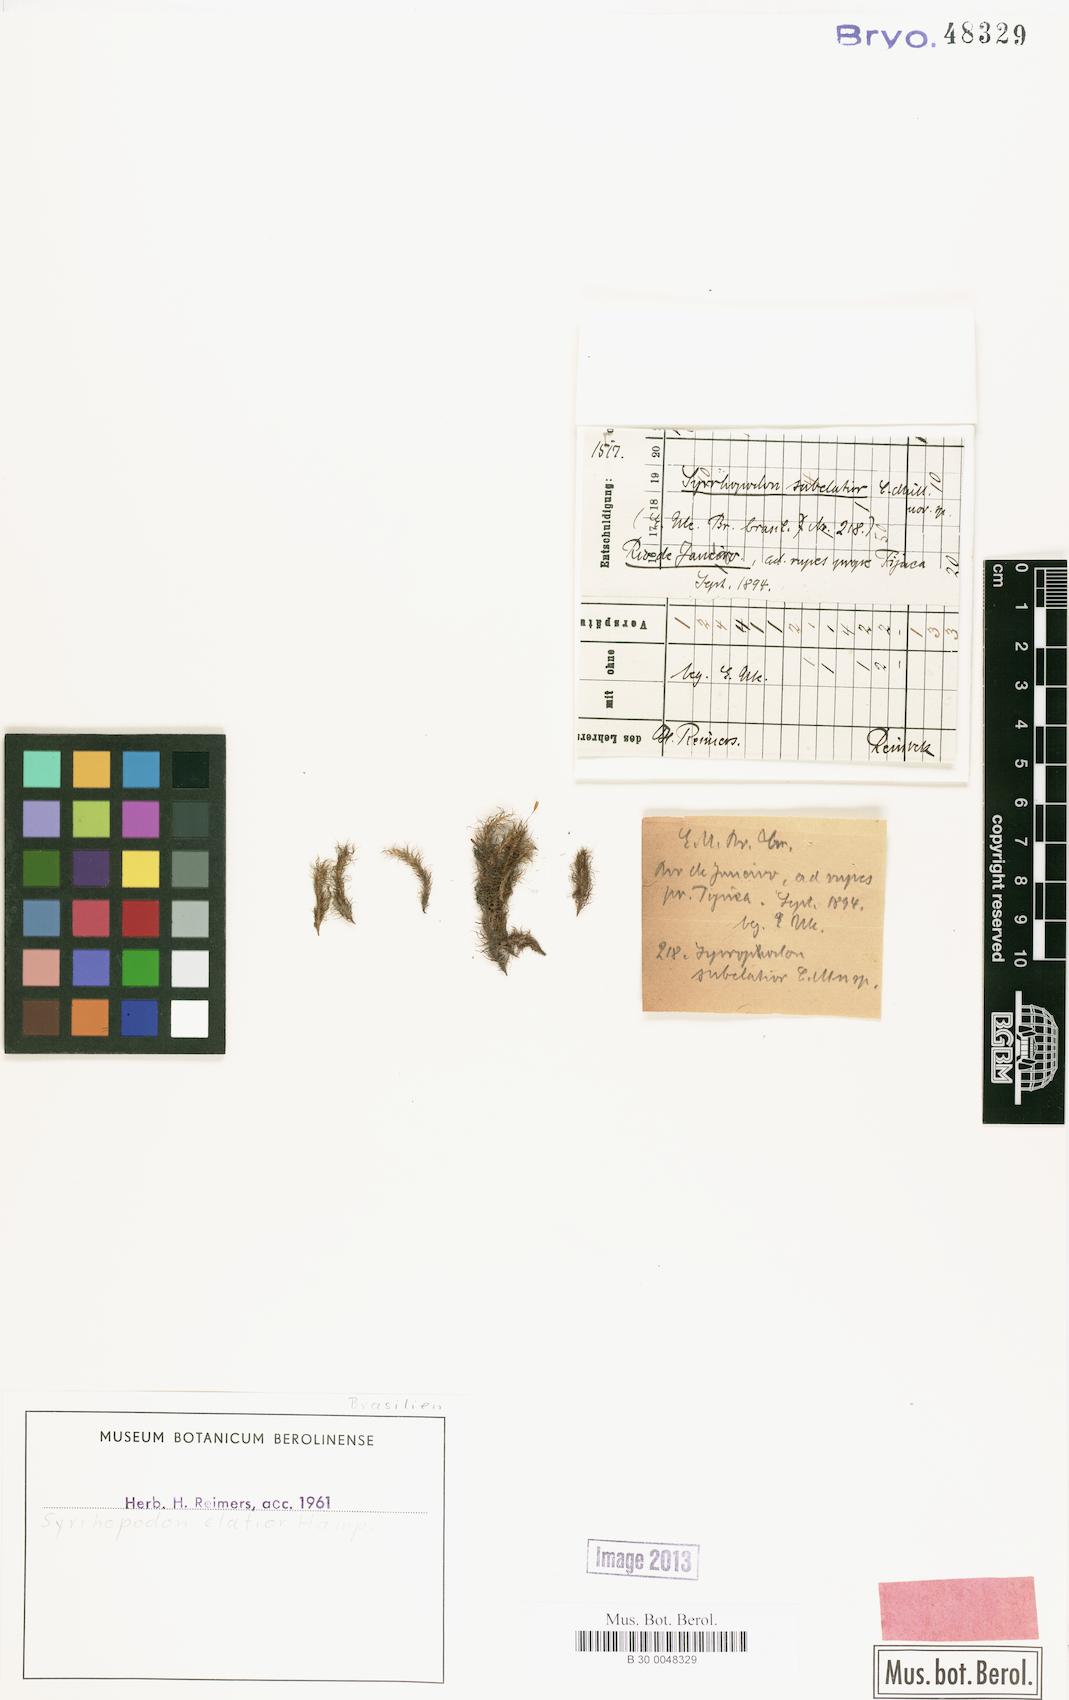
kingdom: Plantae
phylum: Bryophyta
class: Bryopsida
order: Dicranales
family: Calymperaceae
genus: Syrrhopodon
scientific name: Syrrhopodon prolifer
